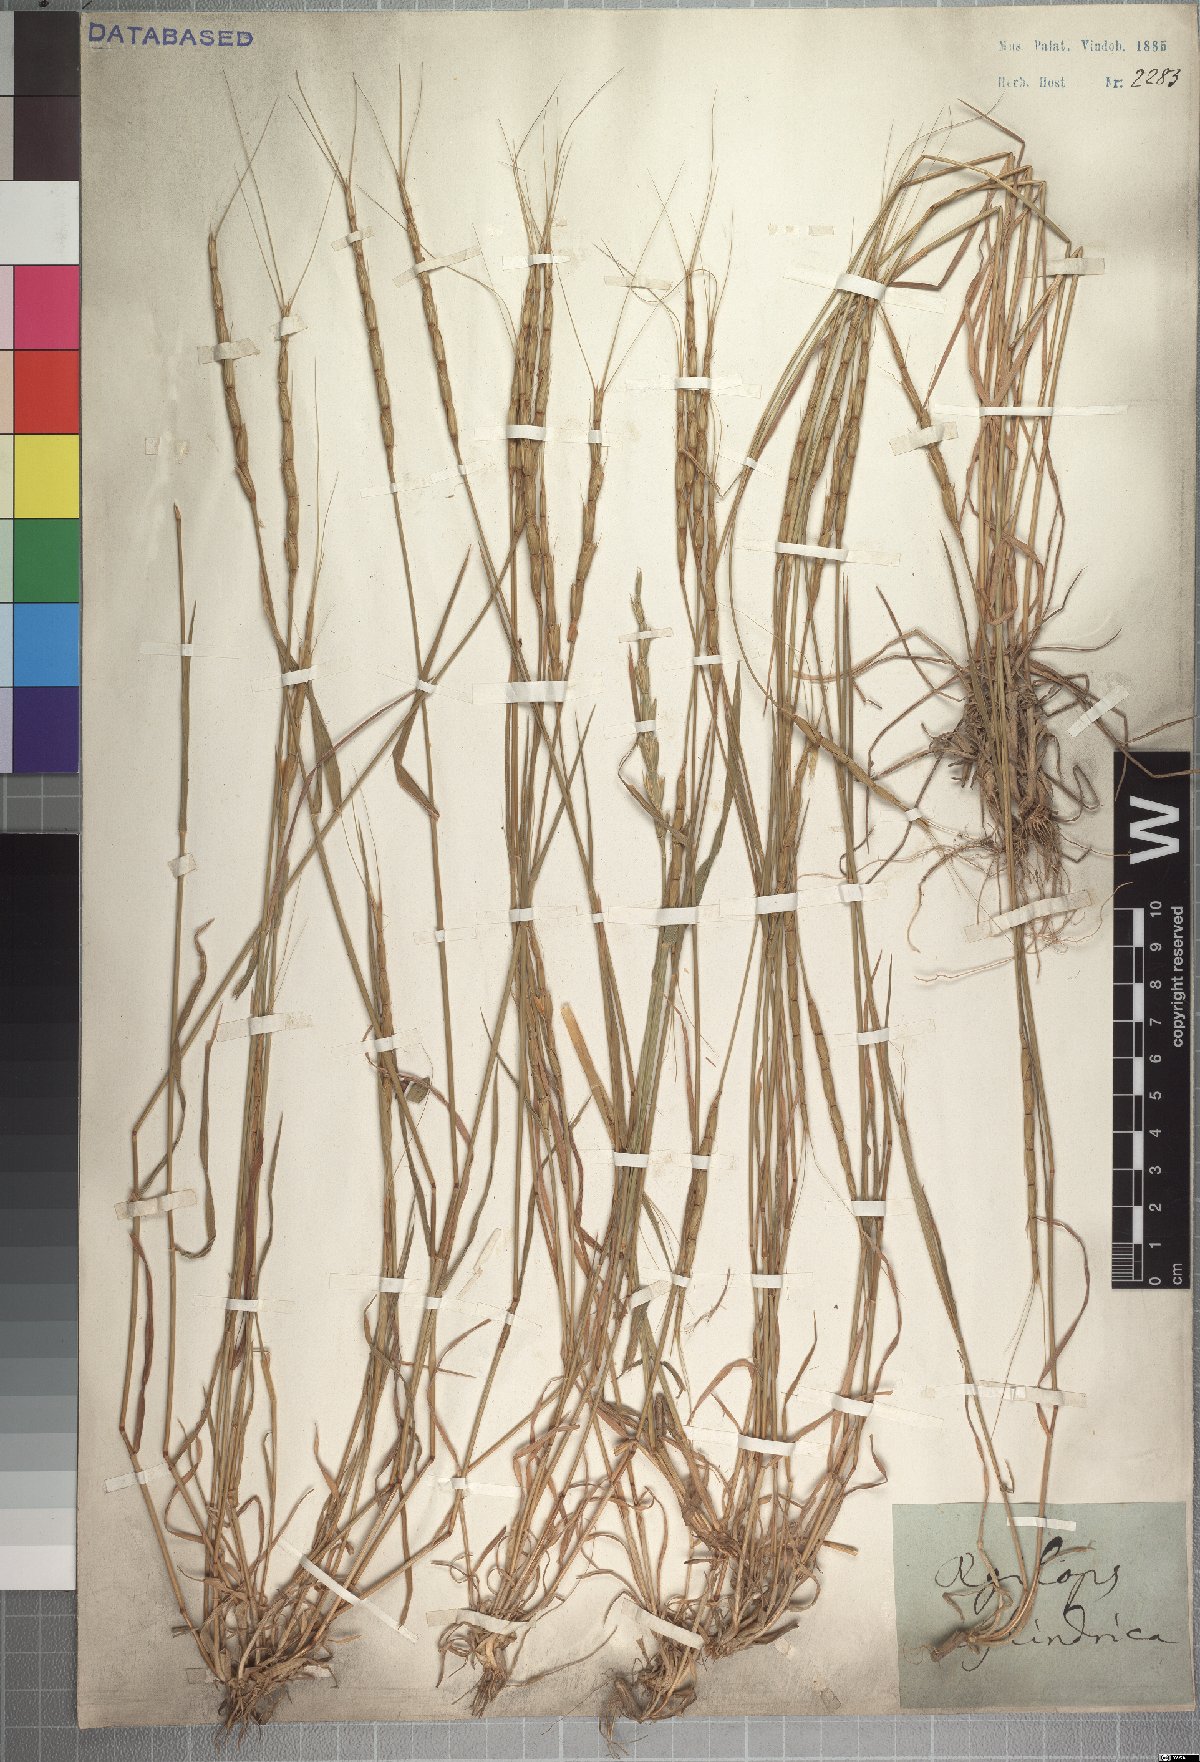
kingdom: Plantae
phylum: Tracheophyta
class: Liliopsida
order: Poales
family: Poaceae
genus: Aegilops
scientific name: Aegilops cylindrica
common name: Jointed goatgrass
